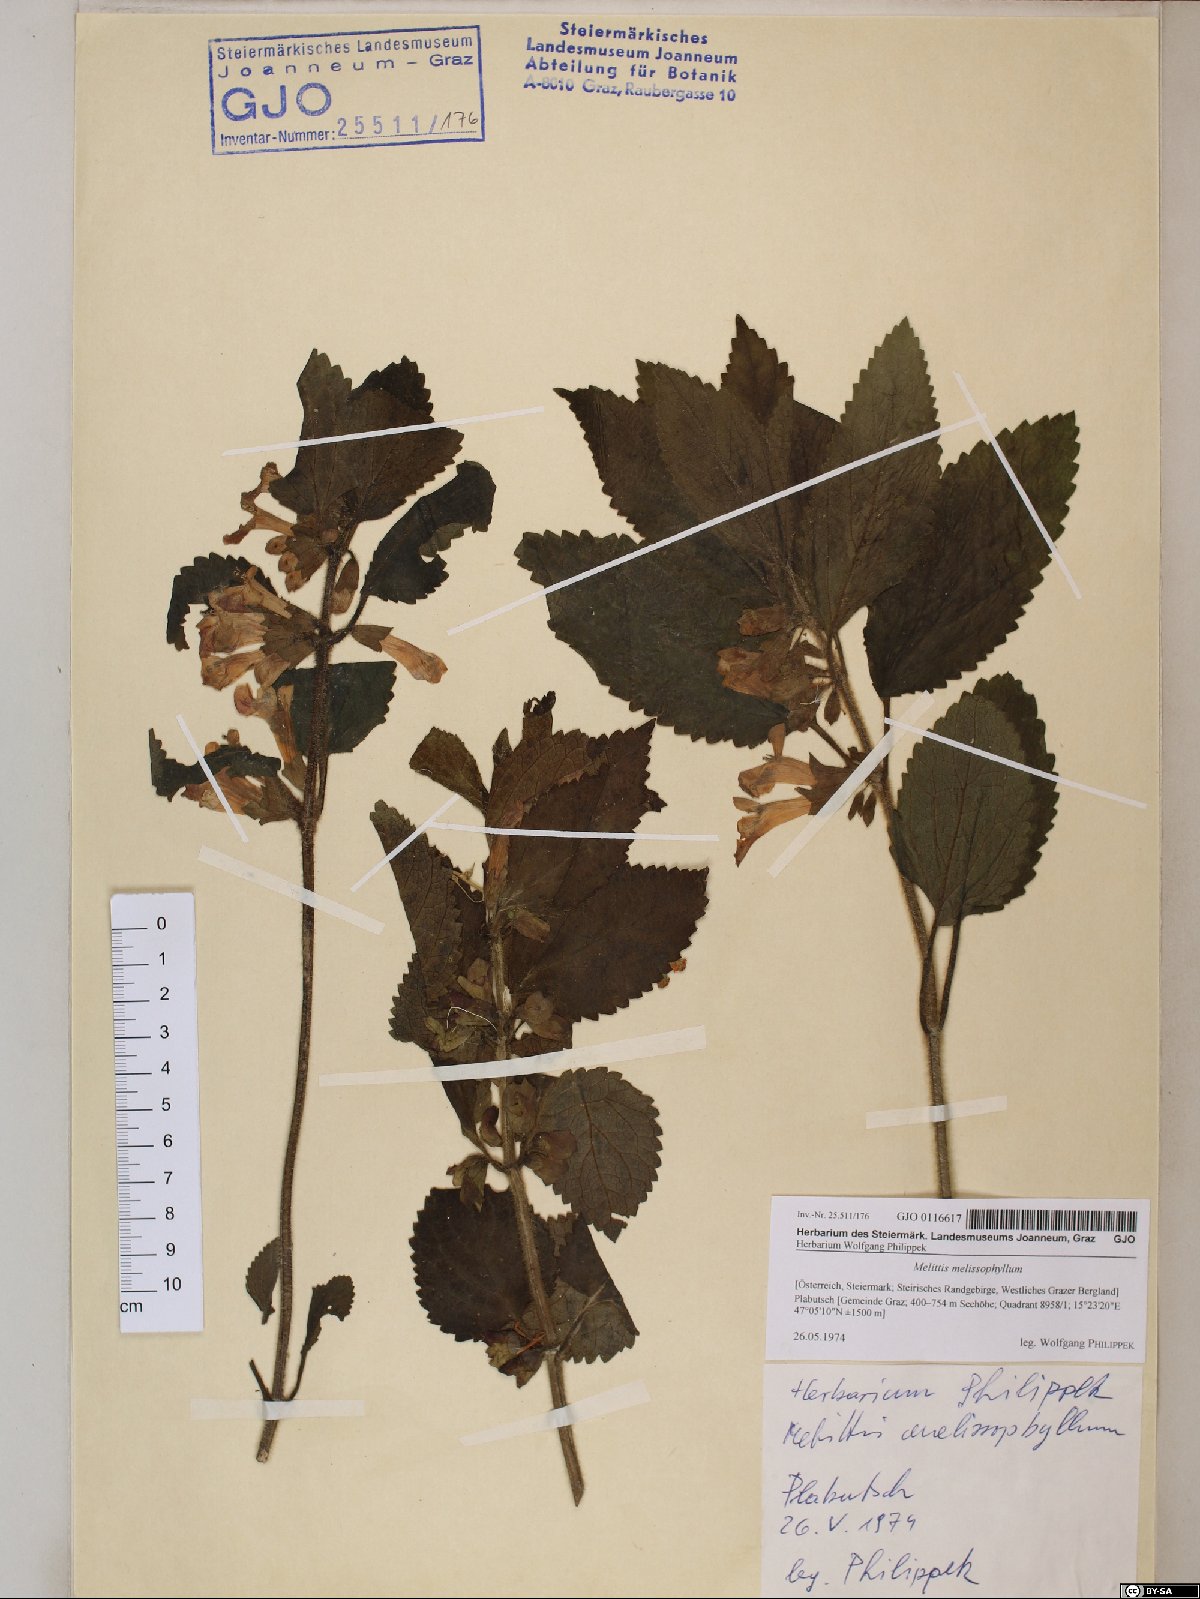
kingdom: Plantae
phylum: Tracheophyta
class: Magnoliopsida
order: Lamiales
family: Lamiaceae
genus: Melittis
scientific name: Melittis melissophyllum
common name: Bastard balm
